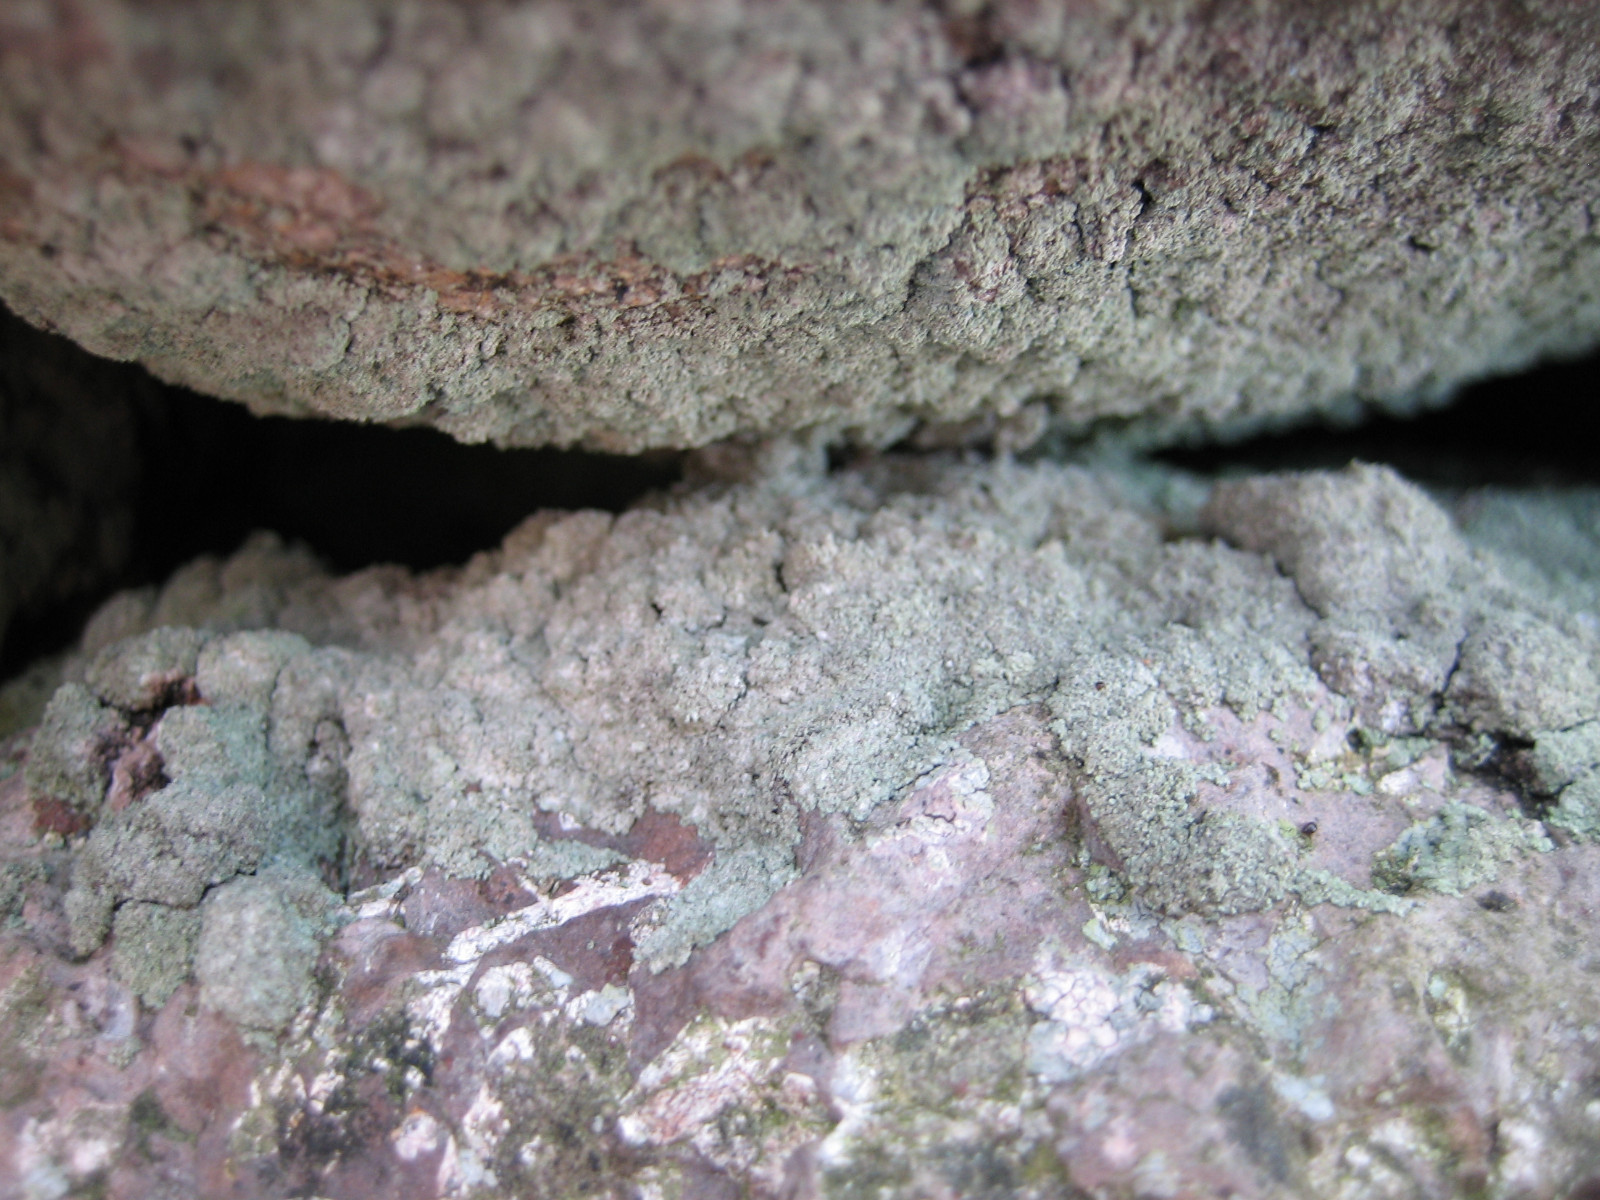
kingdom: Fungi
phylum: Ascomycota
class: Lecanoromycetes
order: Lecanorales
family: Stereocaulaceae
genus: Lepraria
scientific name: Lepraria incana
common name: almindelig støvlav
